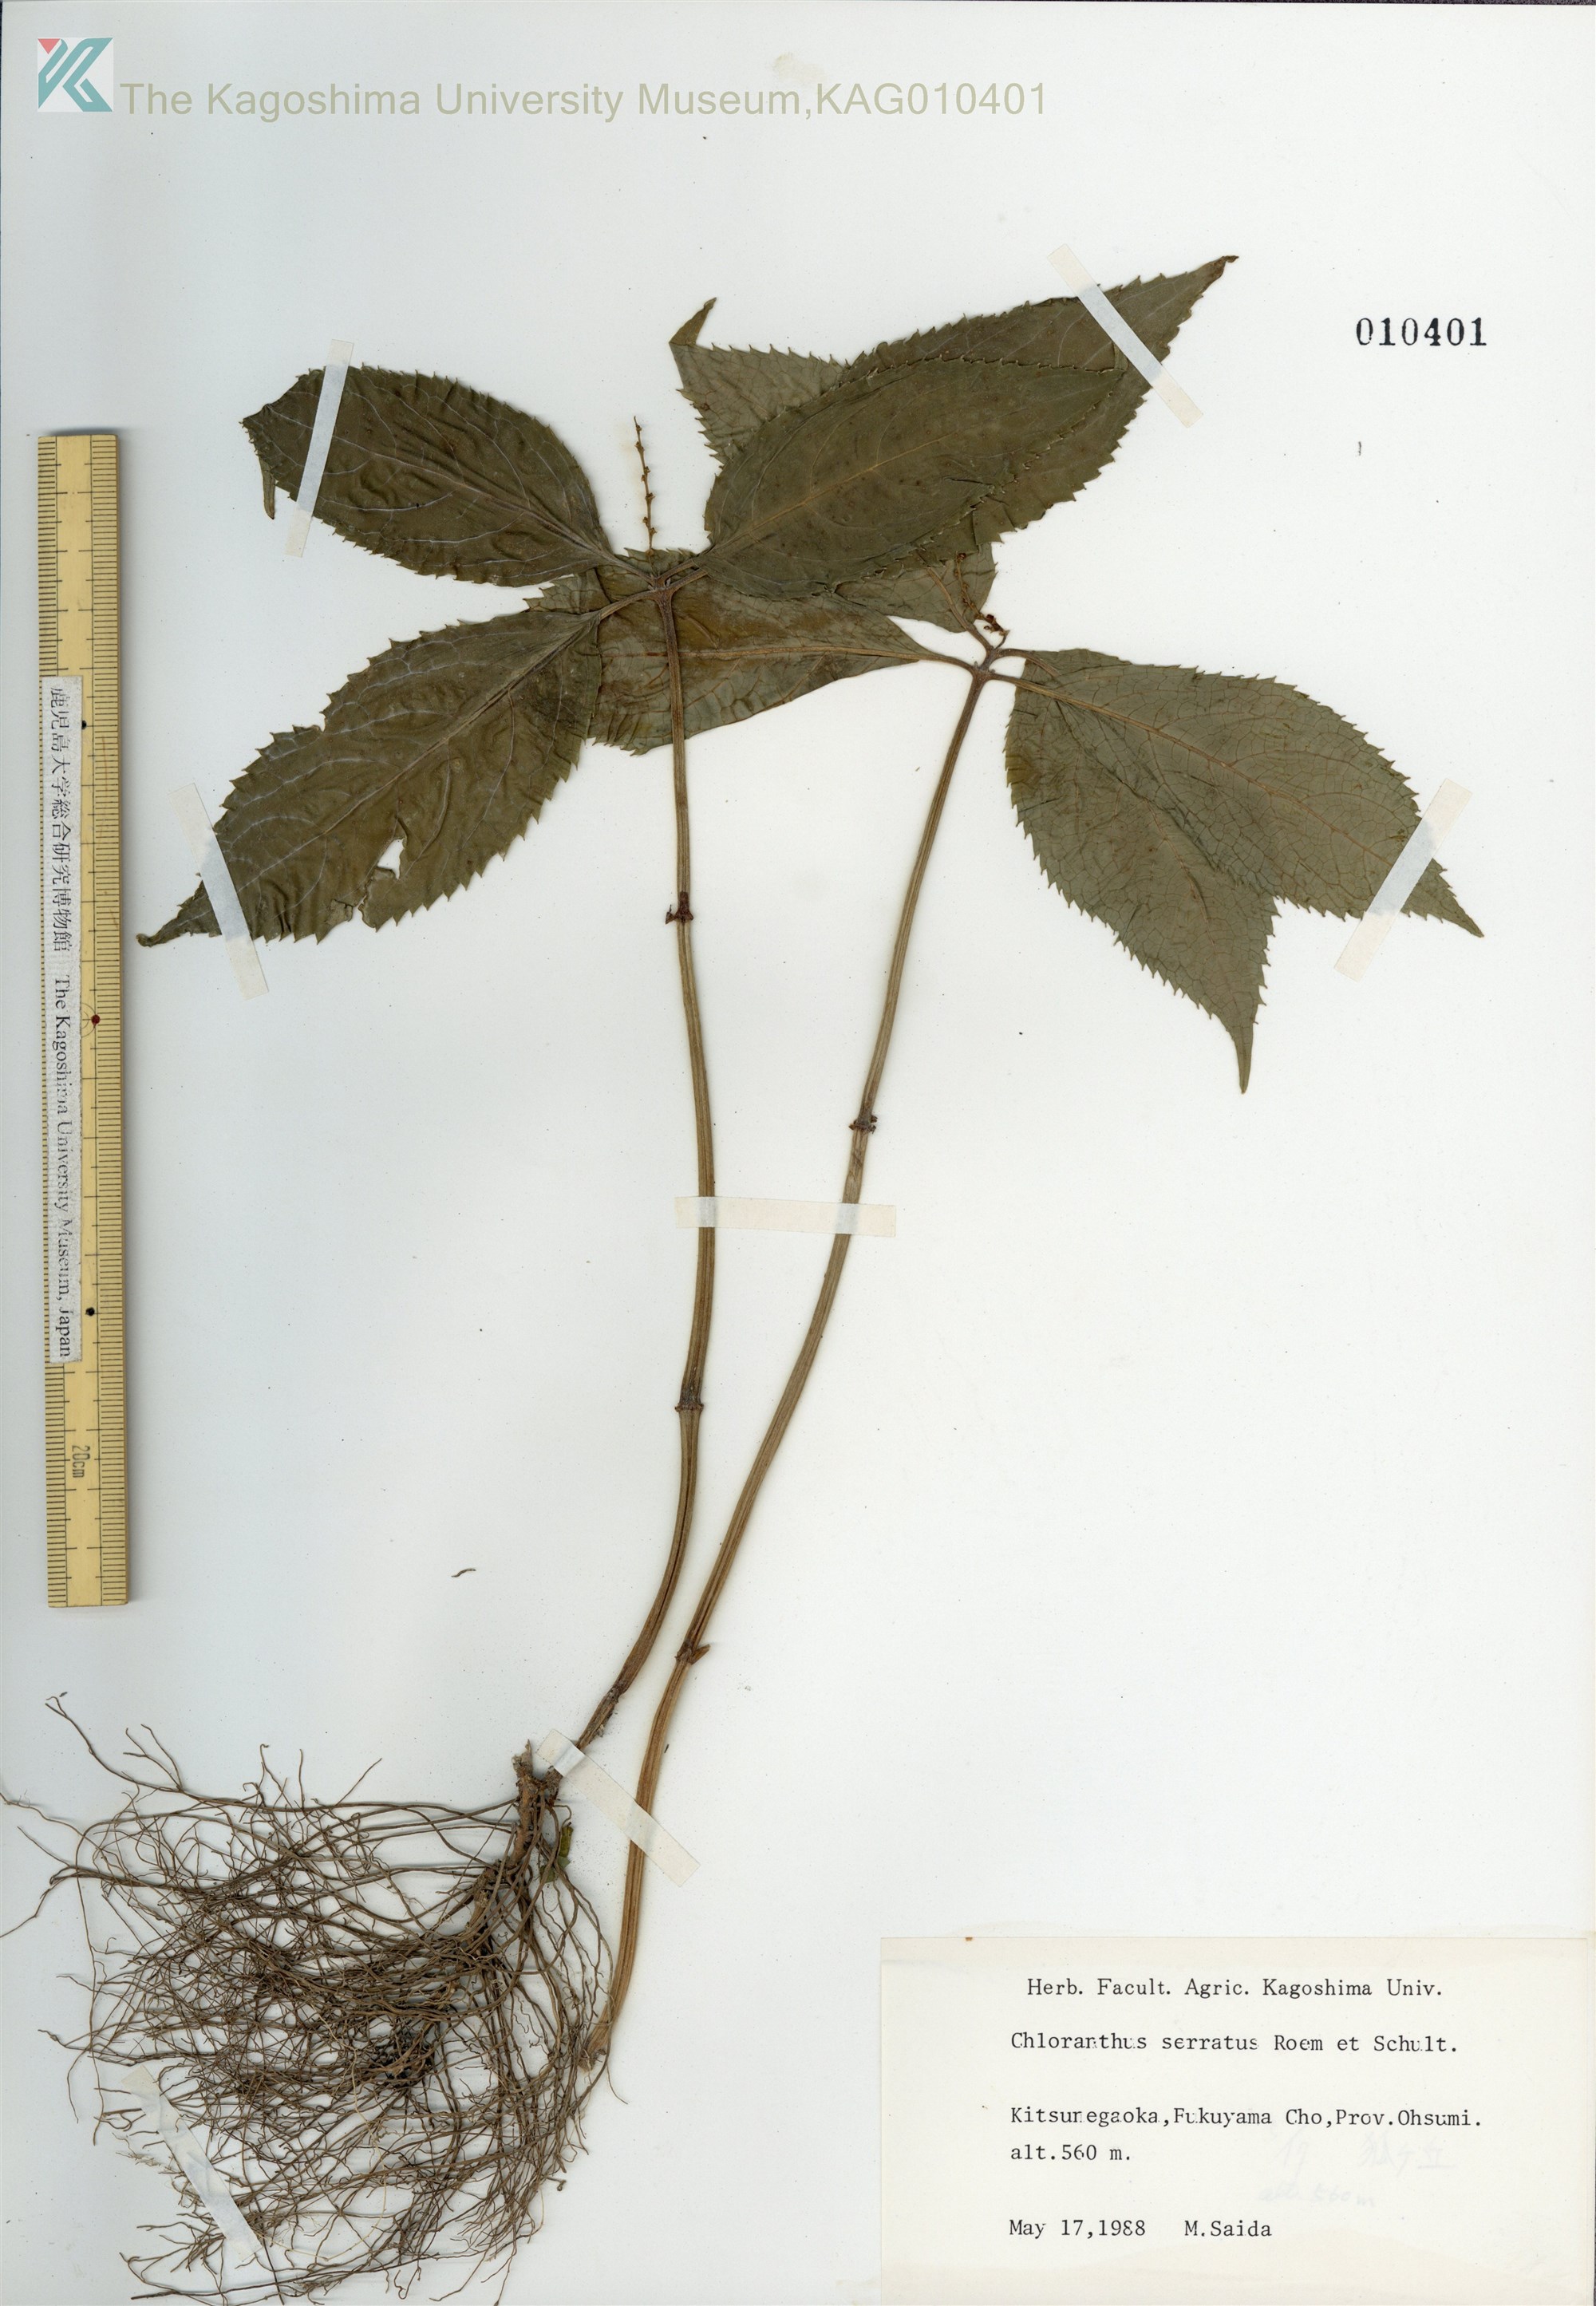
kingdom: Plantae
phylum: Tracheophyta
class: Magnoliopsida
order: Chloranthales
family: Chloranthaceae
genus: Chloranthus
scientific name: Chloranthus serratus
